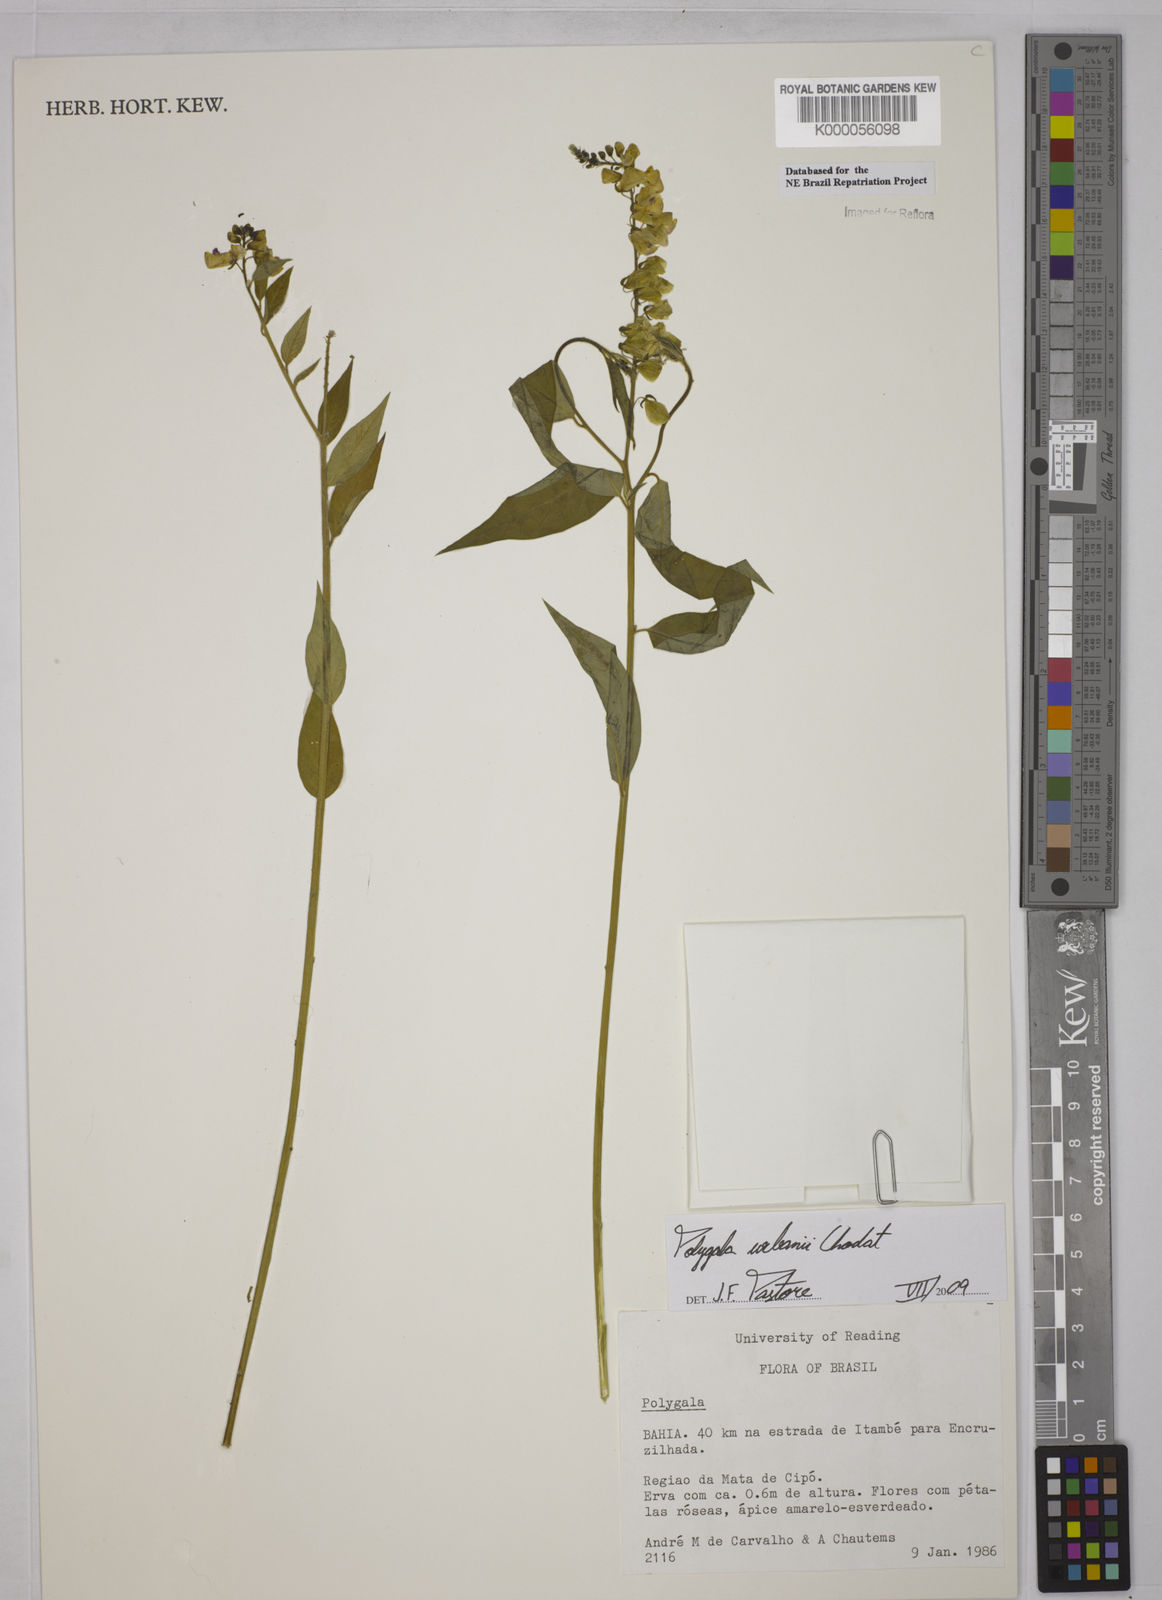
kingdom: Plantae
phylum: Tracheophyta
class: Magnoliopsida
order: Fabales
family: Polygalaceae
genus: Polygala
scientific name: Polygala
